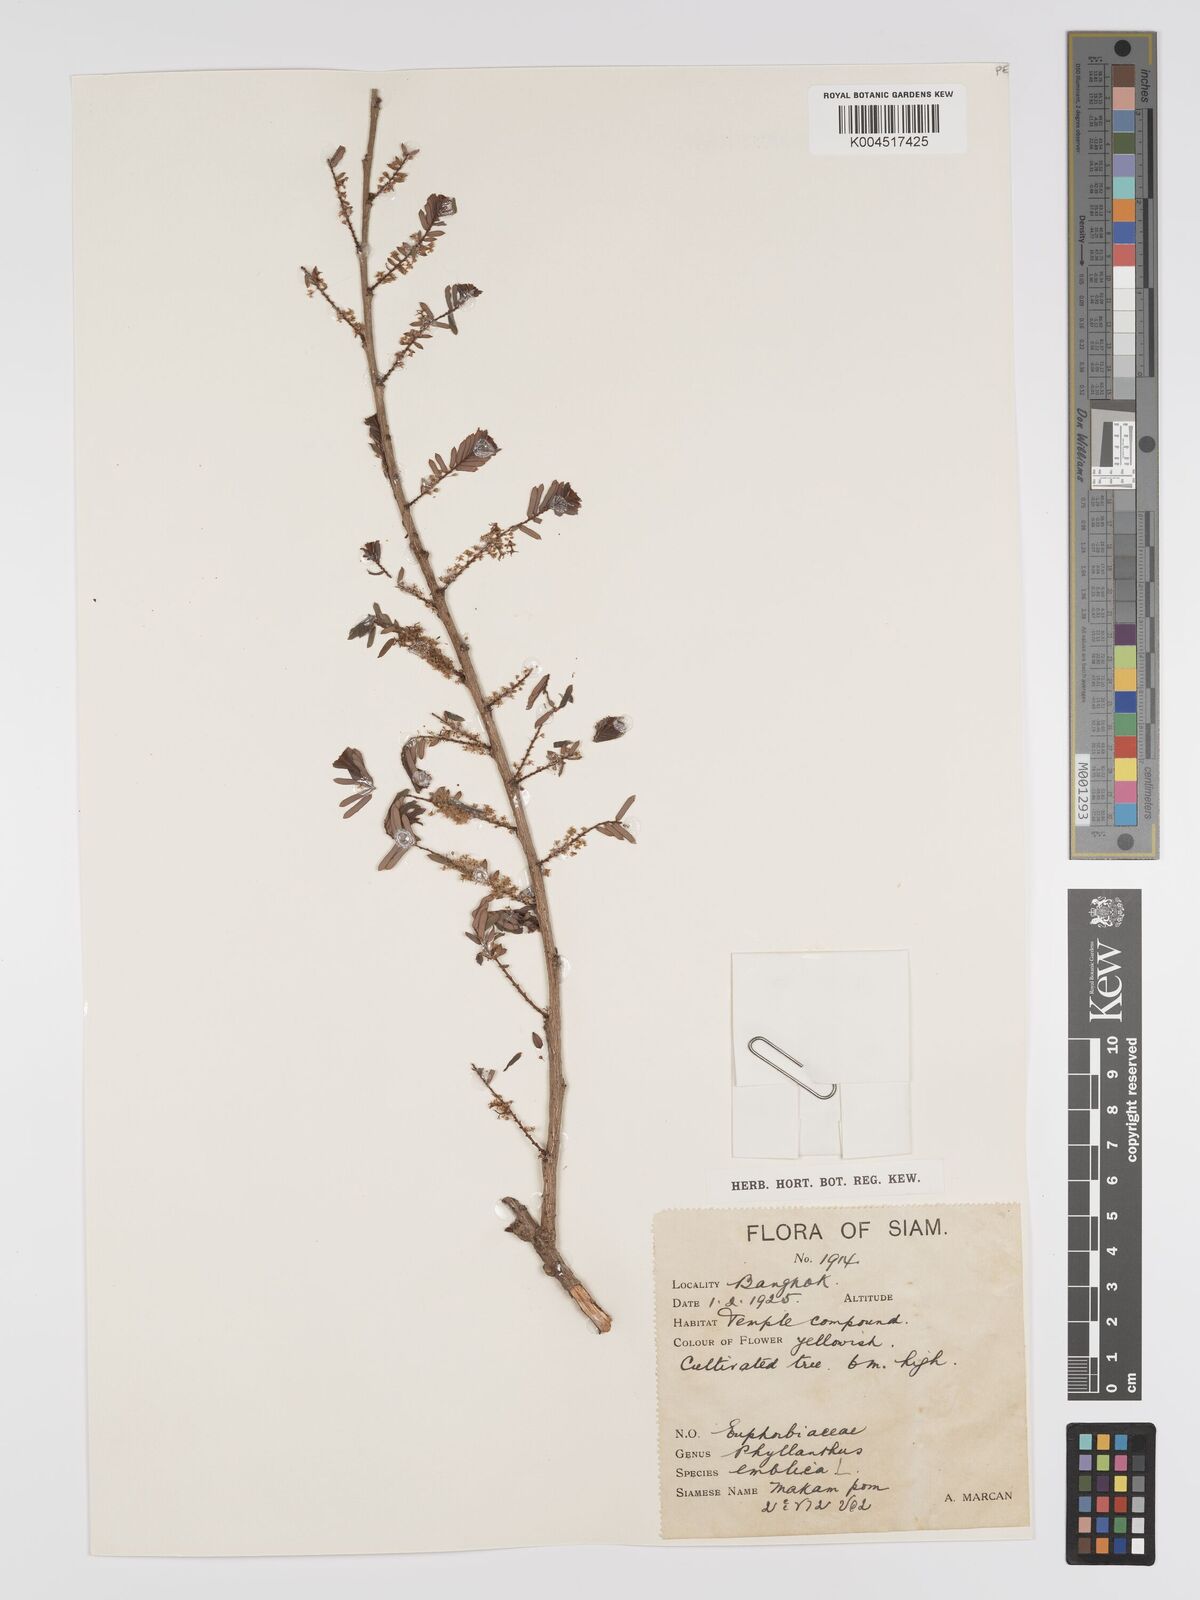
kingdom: Plantae
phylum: Tracheophyta
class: Magnoliopsida
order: Malpighiales
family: Phyllanthaceae
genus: Phyllanthus
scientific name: Phyllanthus emblica
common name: Indian gooseberry
